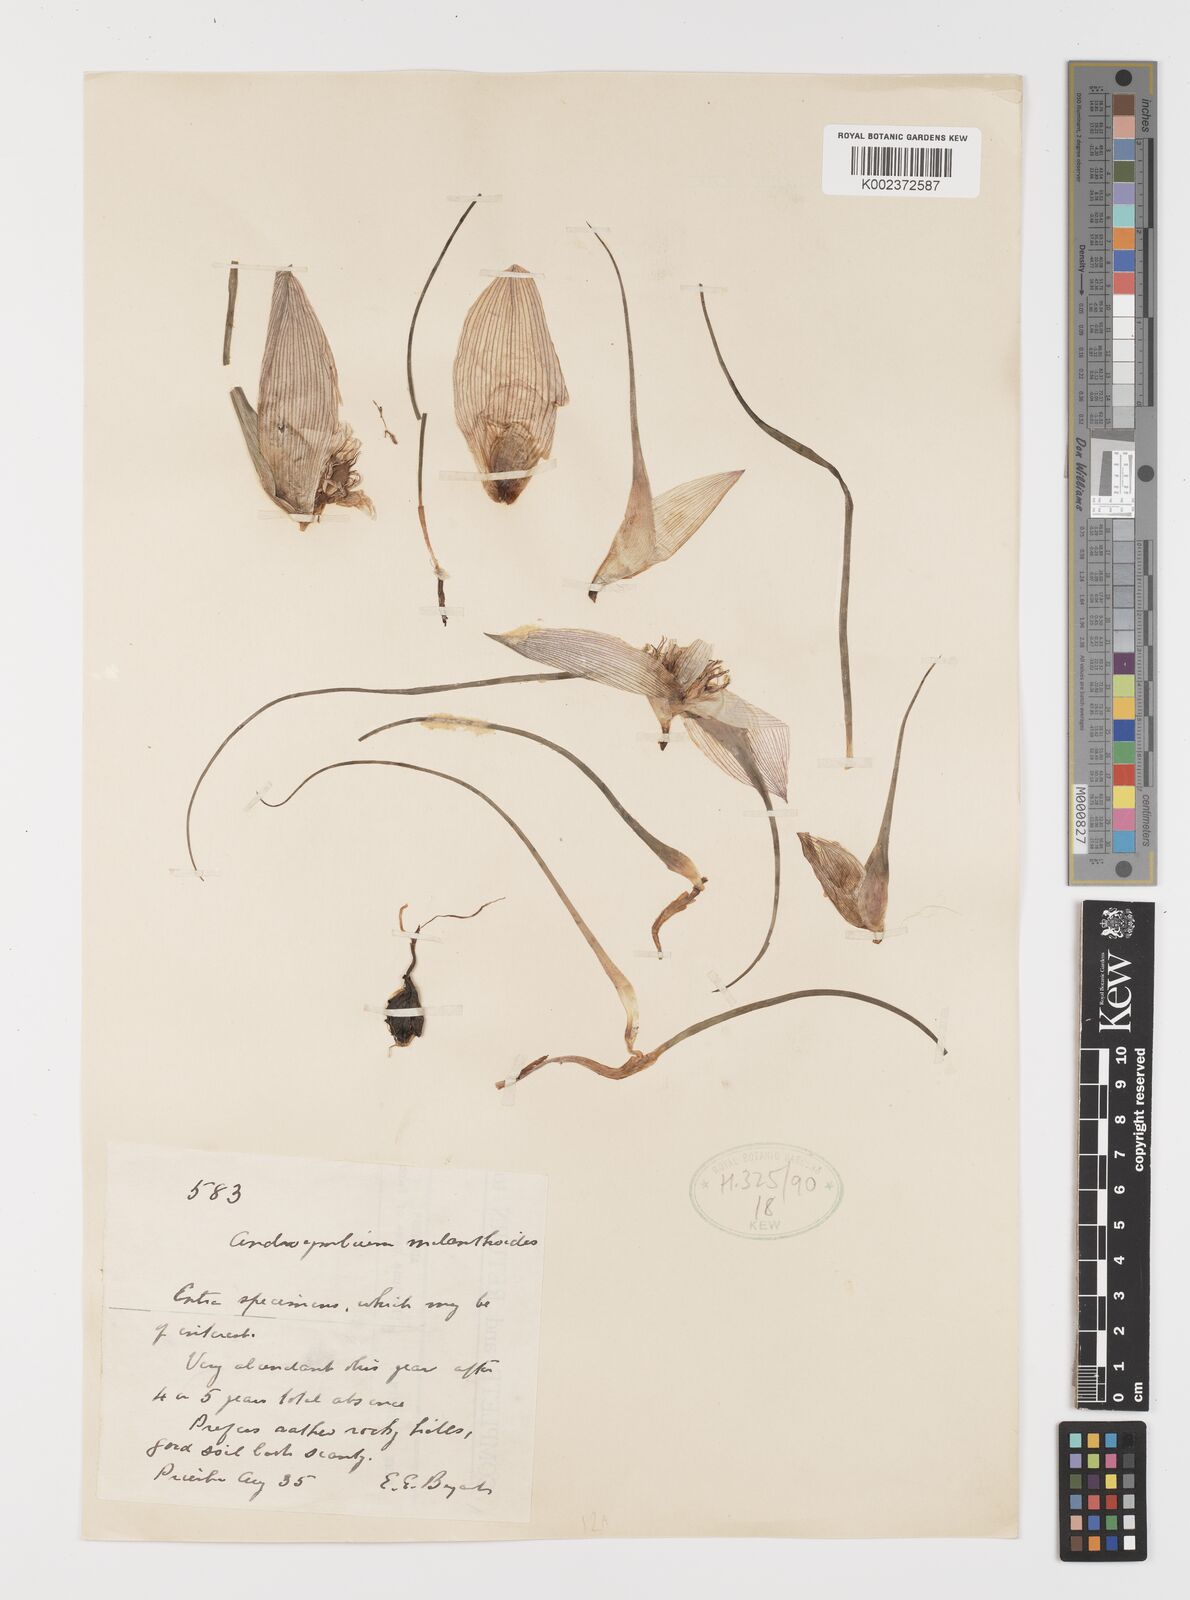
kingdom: Plantae
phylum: Tracheophyta
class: Liliopsida
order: Liliales
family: Colchicaceae
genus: Colchicum
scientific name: Colchicum melanthioides
